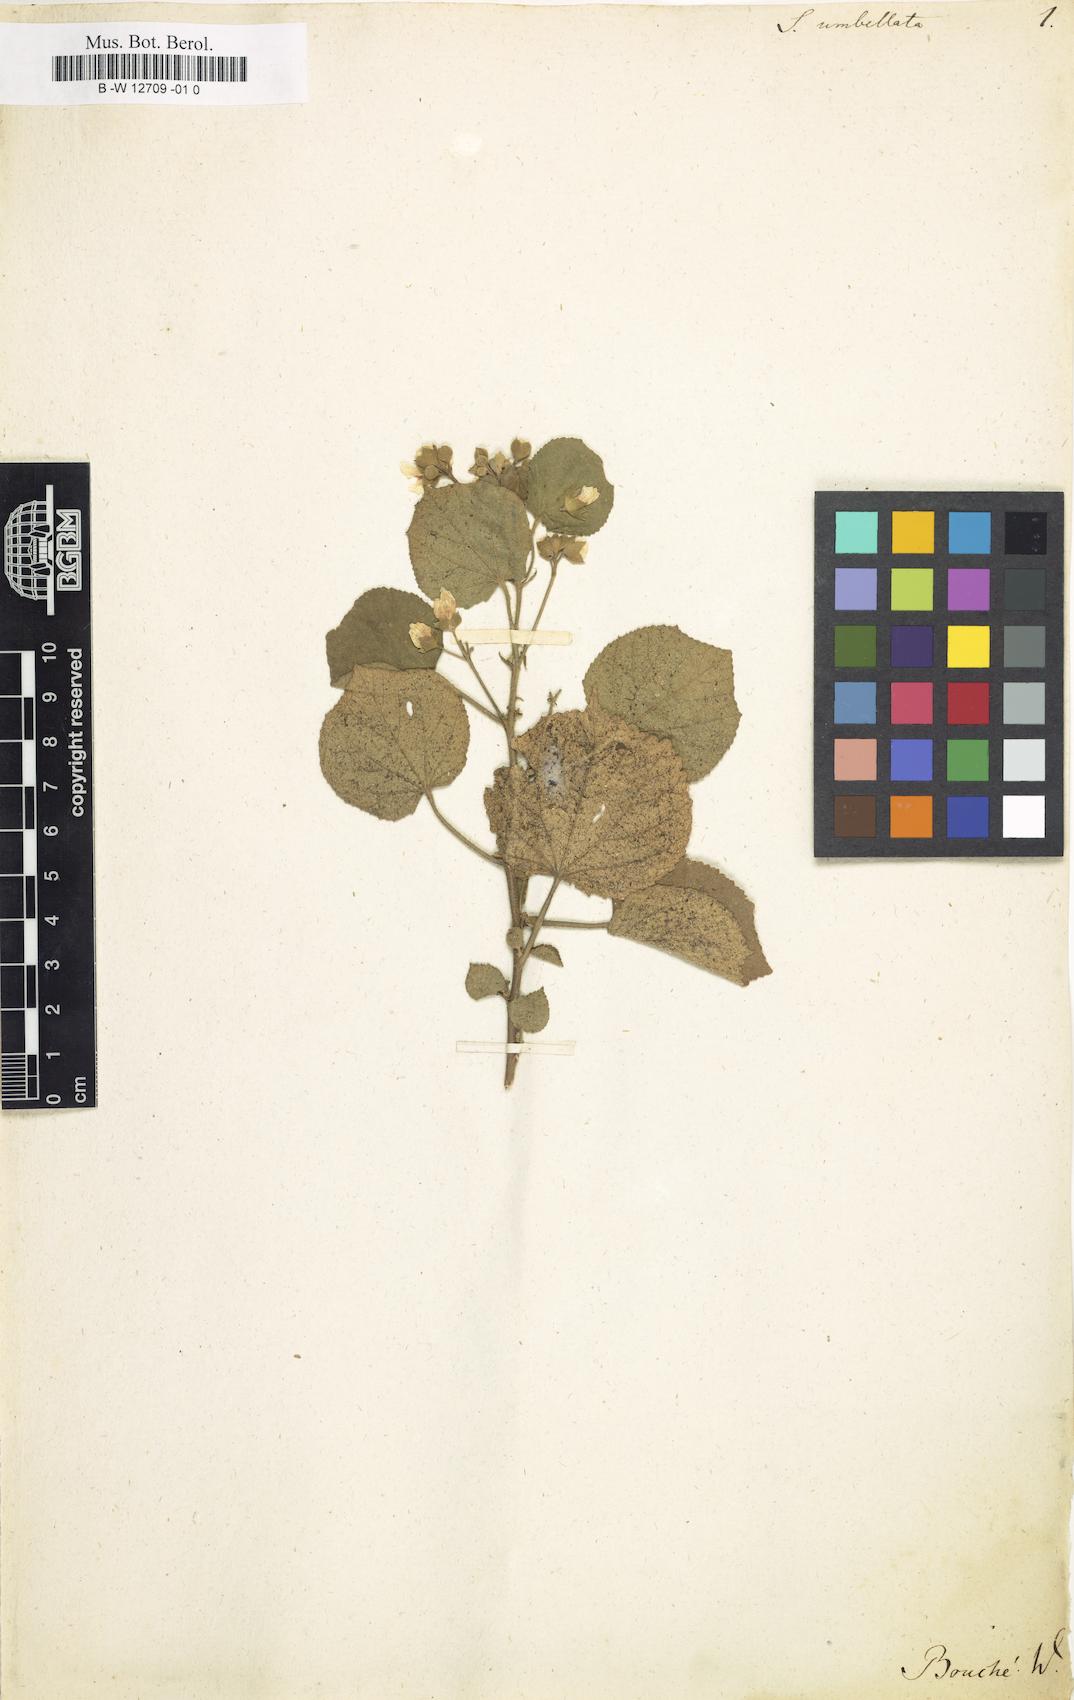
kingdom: Plantae
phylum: Tracheophyta
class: Magnoliopsida
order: Malvales
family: Malvaceae
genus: Pseudabutilon
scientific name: Pseudabutilon umbellatum
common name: Umbrella indian mallow
